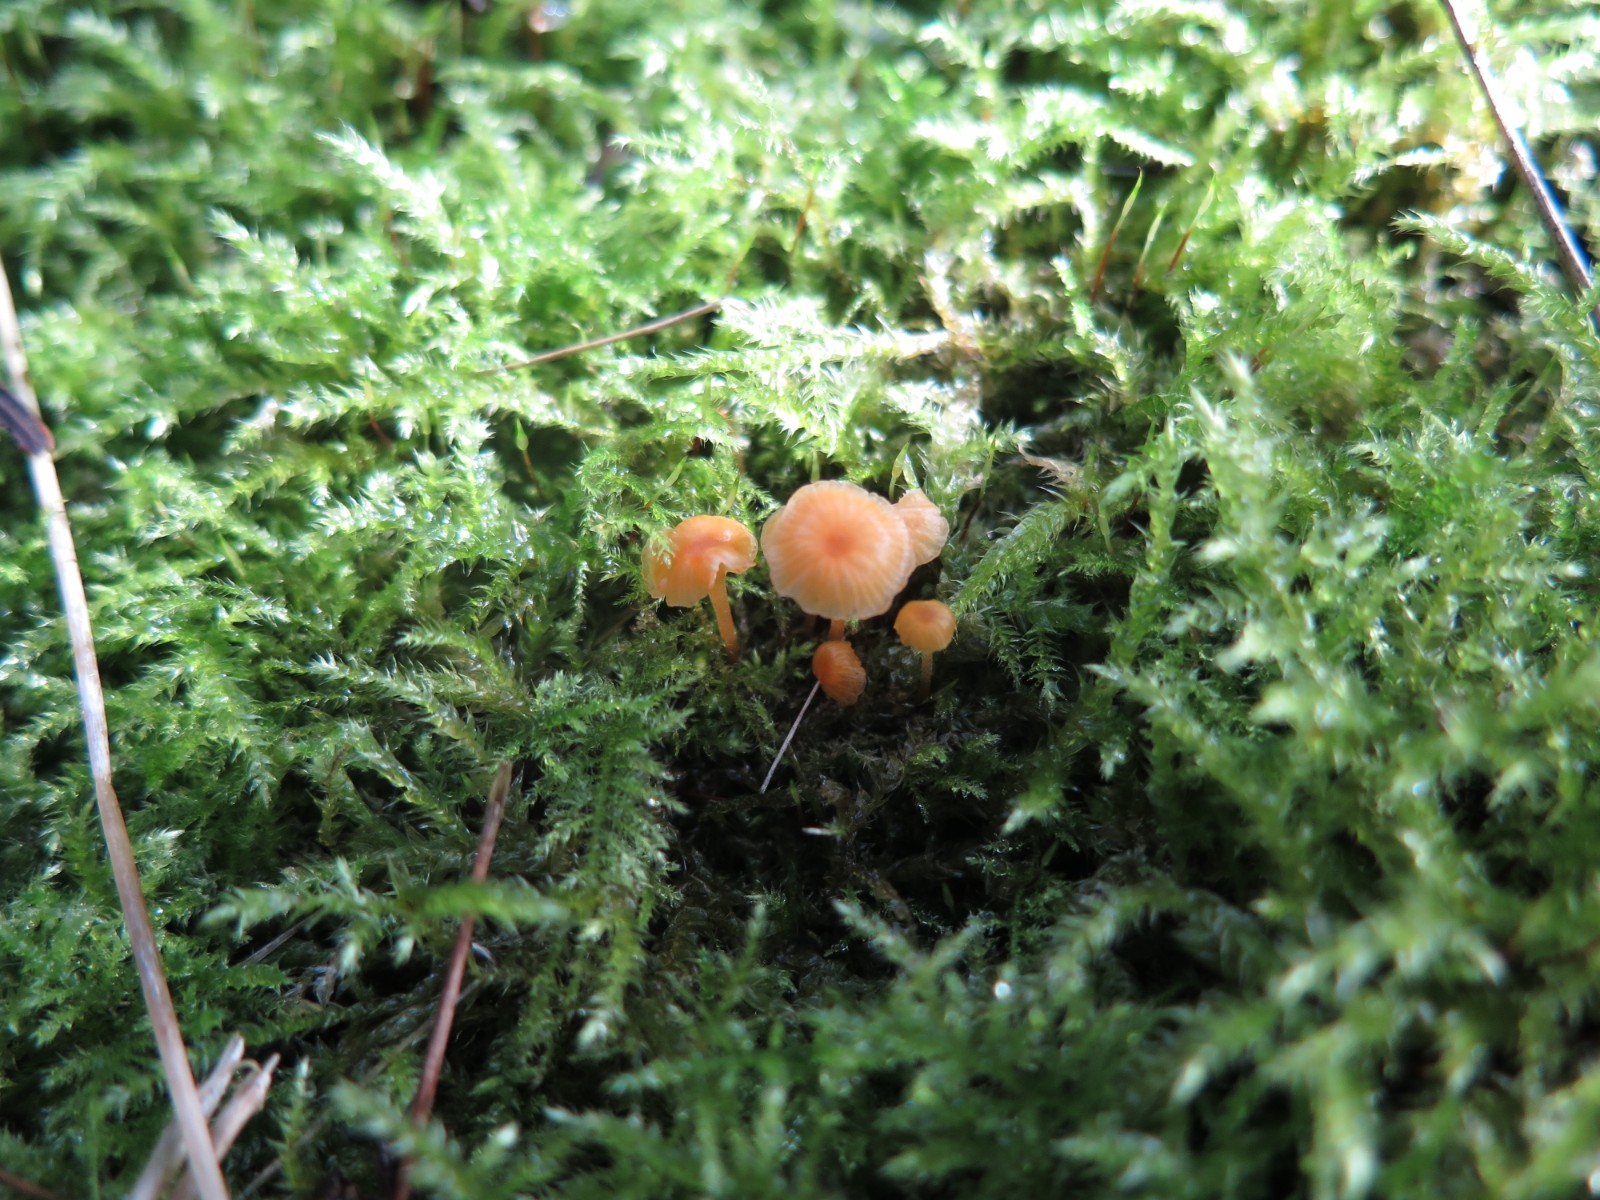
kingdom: Fungi
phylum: Basidiomycota
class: Agaricomycetes
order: Hymenochaetales
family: Rickenellaceae
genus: Rickenella
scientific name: Rickenella fibula
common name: orange mosnavlehat
